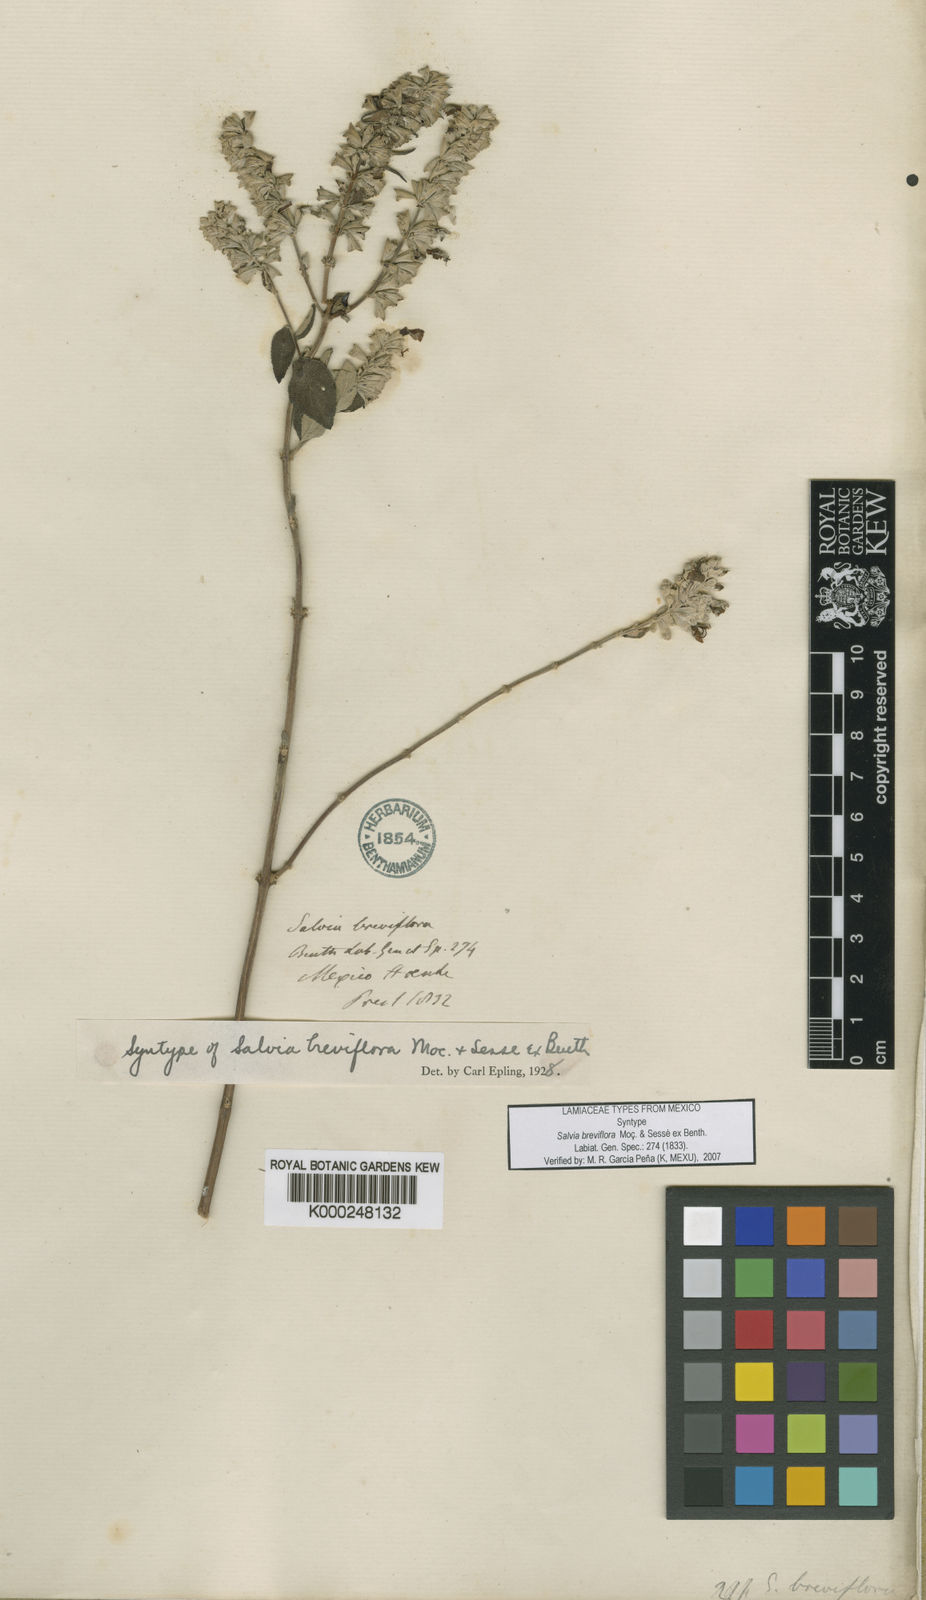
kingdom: Plantae
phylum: Tracheophyta
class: Magnoliopsida
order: Lamiales
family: Lamiaceae
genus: Salvia
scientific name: Salvia
